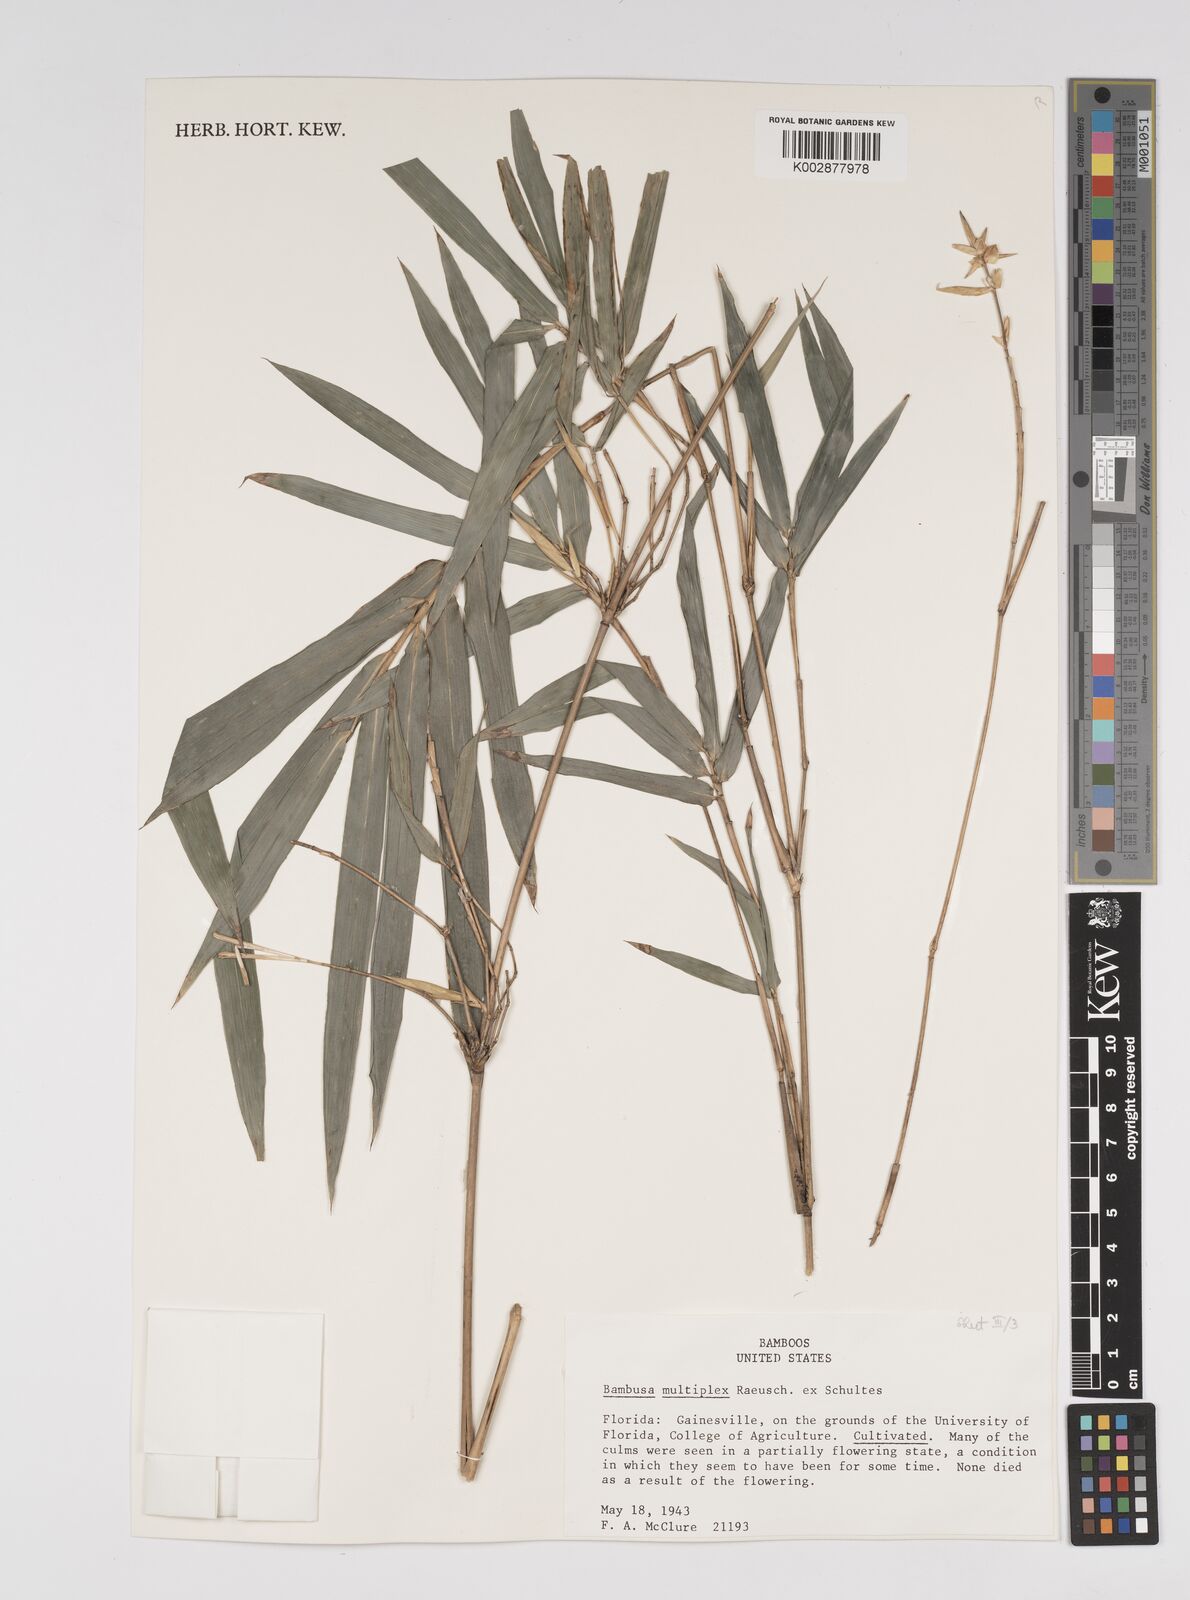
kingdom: Plantae
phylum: Tracheophyta
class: Liliopsida
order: Poales
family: Poaceae
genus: Bambusa
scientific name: Bambusa
